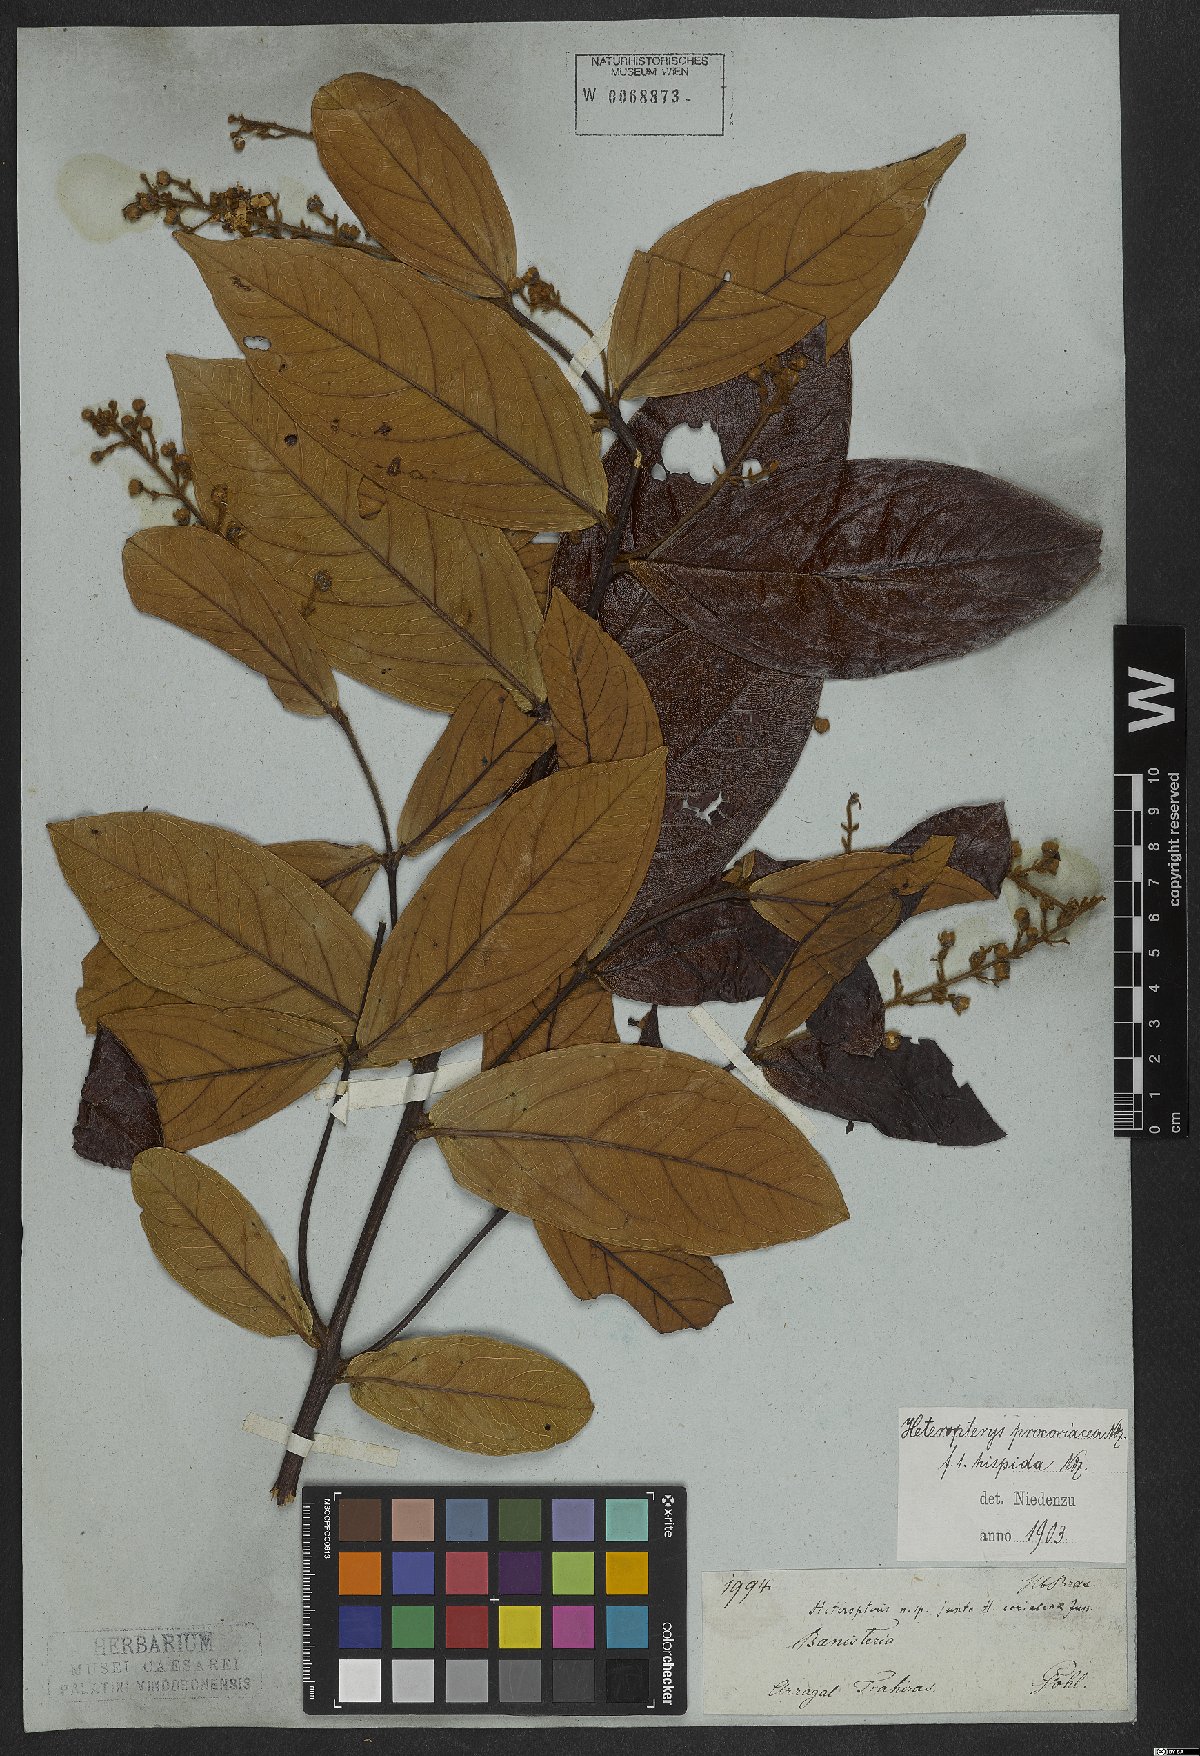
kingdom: Plantae
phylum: Tracheophyta
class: Magnoliopsida
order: Malpighiales
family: Malpighiaceae
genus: Heteropterys
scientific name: Heteropterys procoriacea
